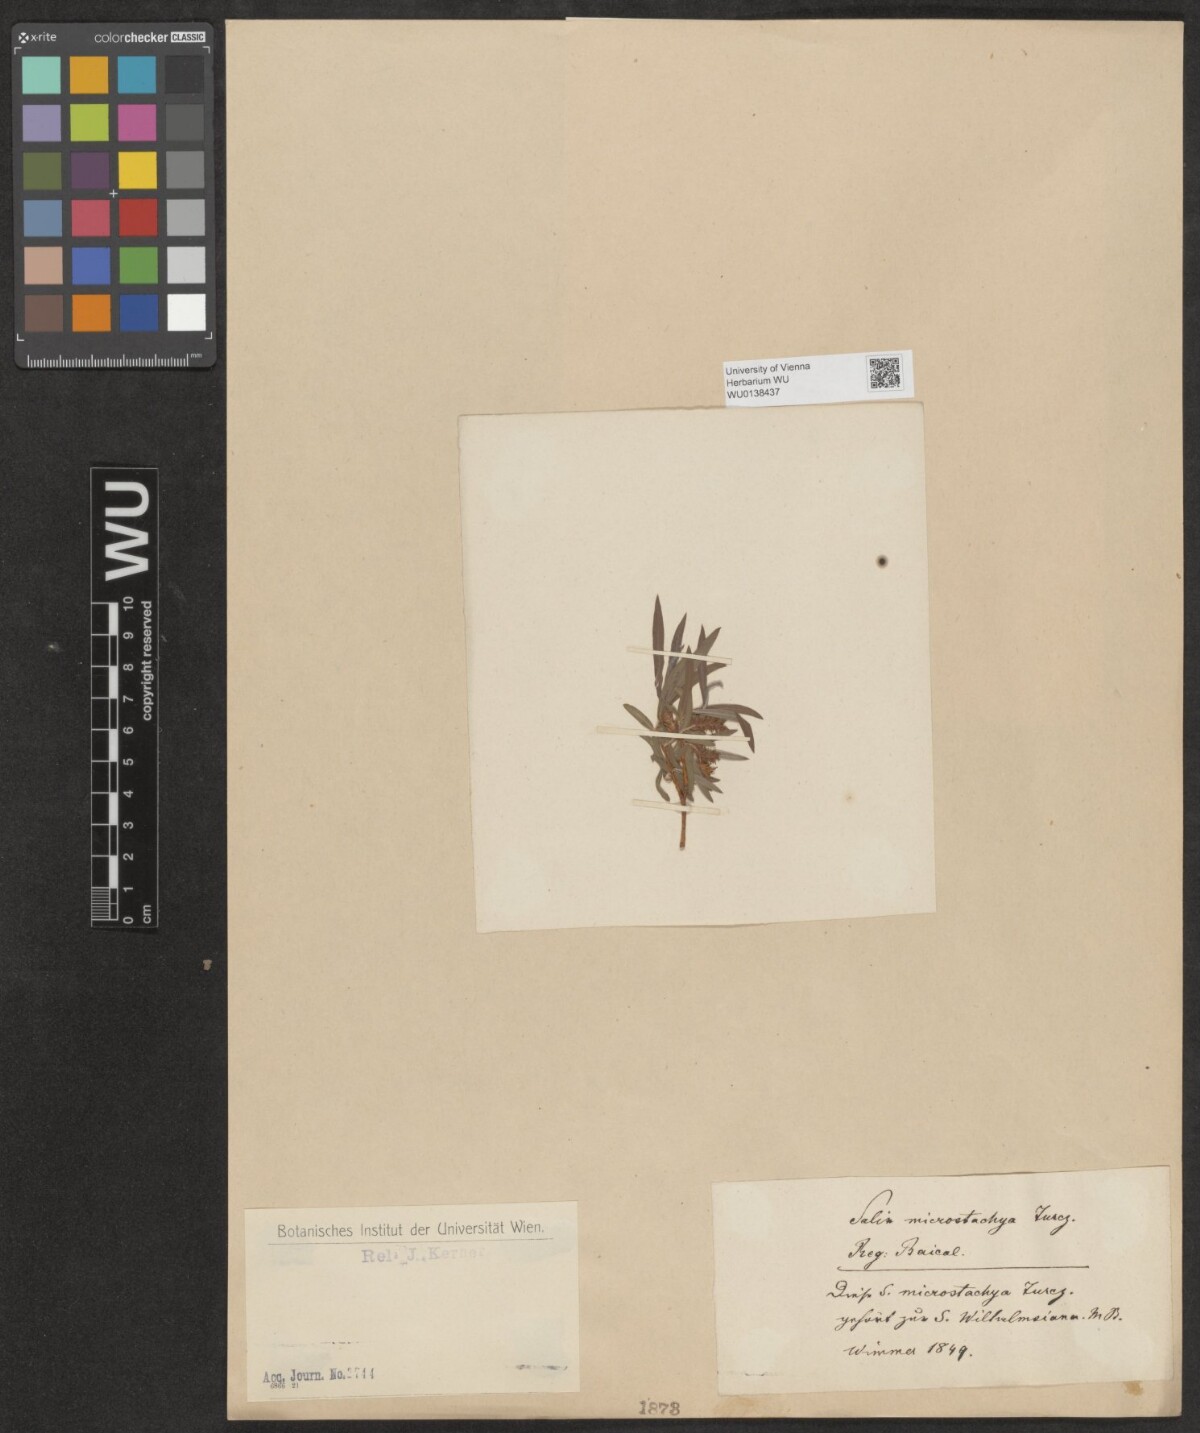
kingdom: Plantae
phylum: Tracheophyta
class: Magnoliopsida
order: Malpighiales
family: Salicaceae
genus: Salix
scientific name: Salix microstachya
